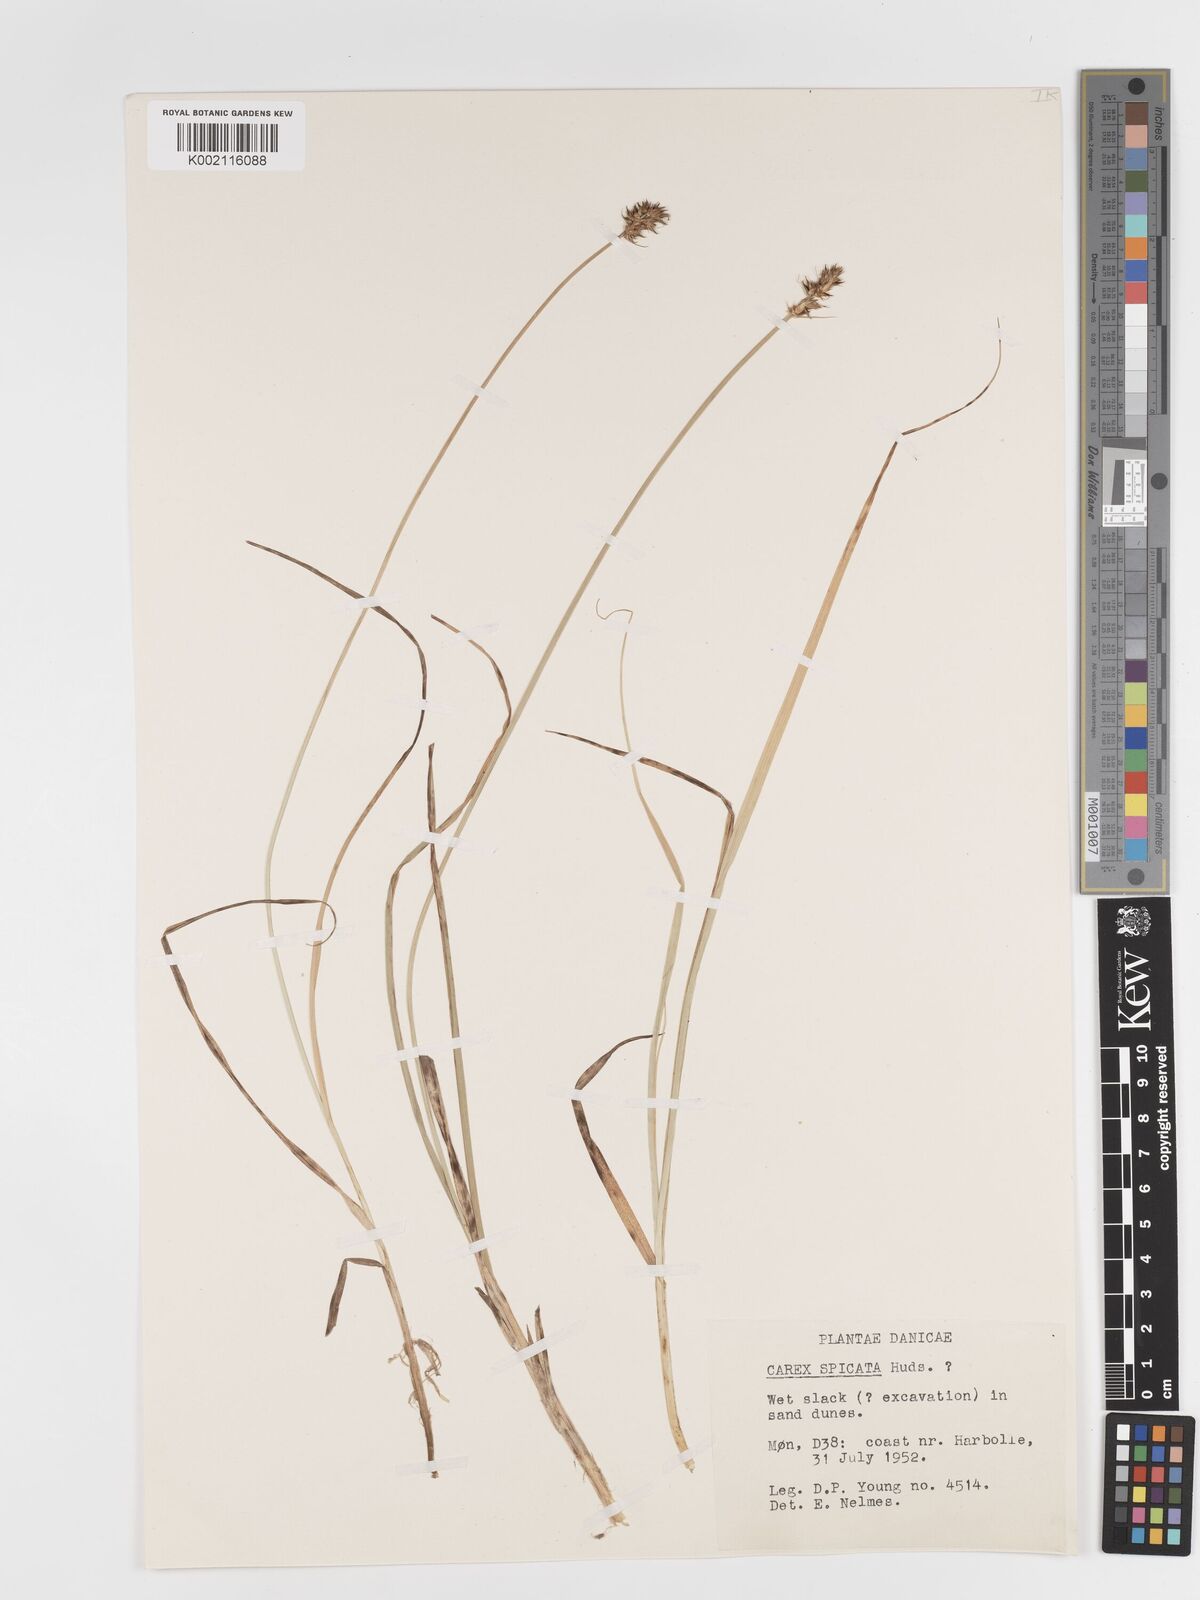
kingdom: Plantae
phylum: Tracheophyta
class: Liliopsida
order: Poales
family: Cyperaceae
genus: Carex
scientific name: Carex spicata
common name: Spiked sedge
